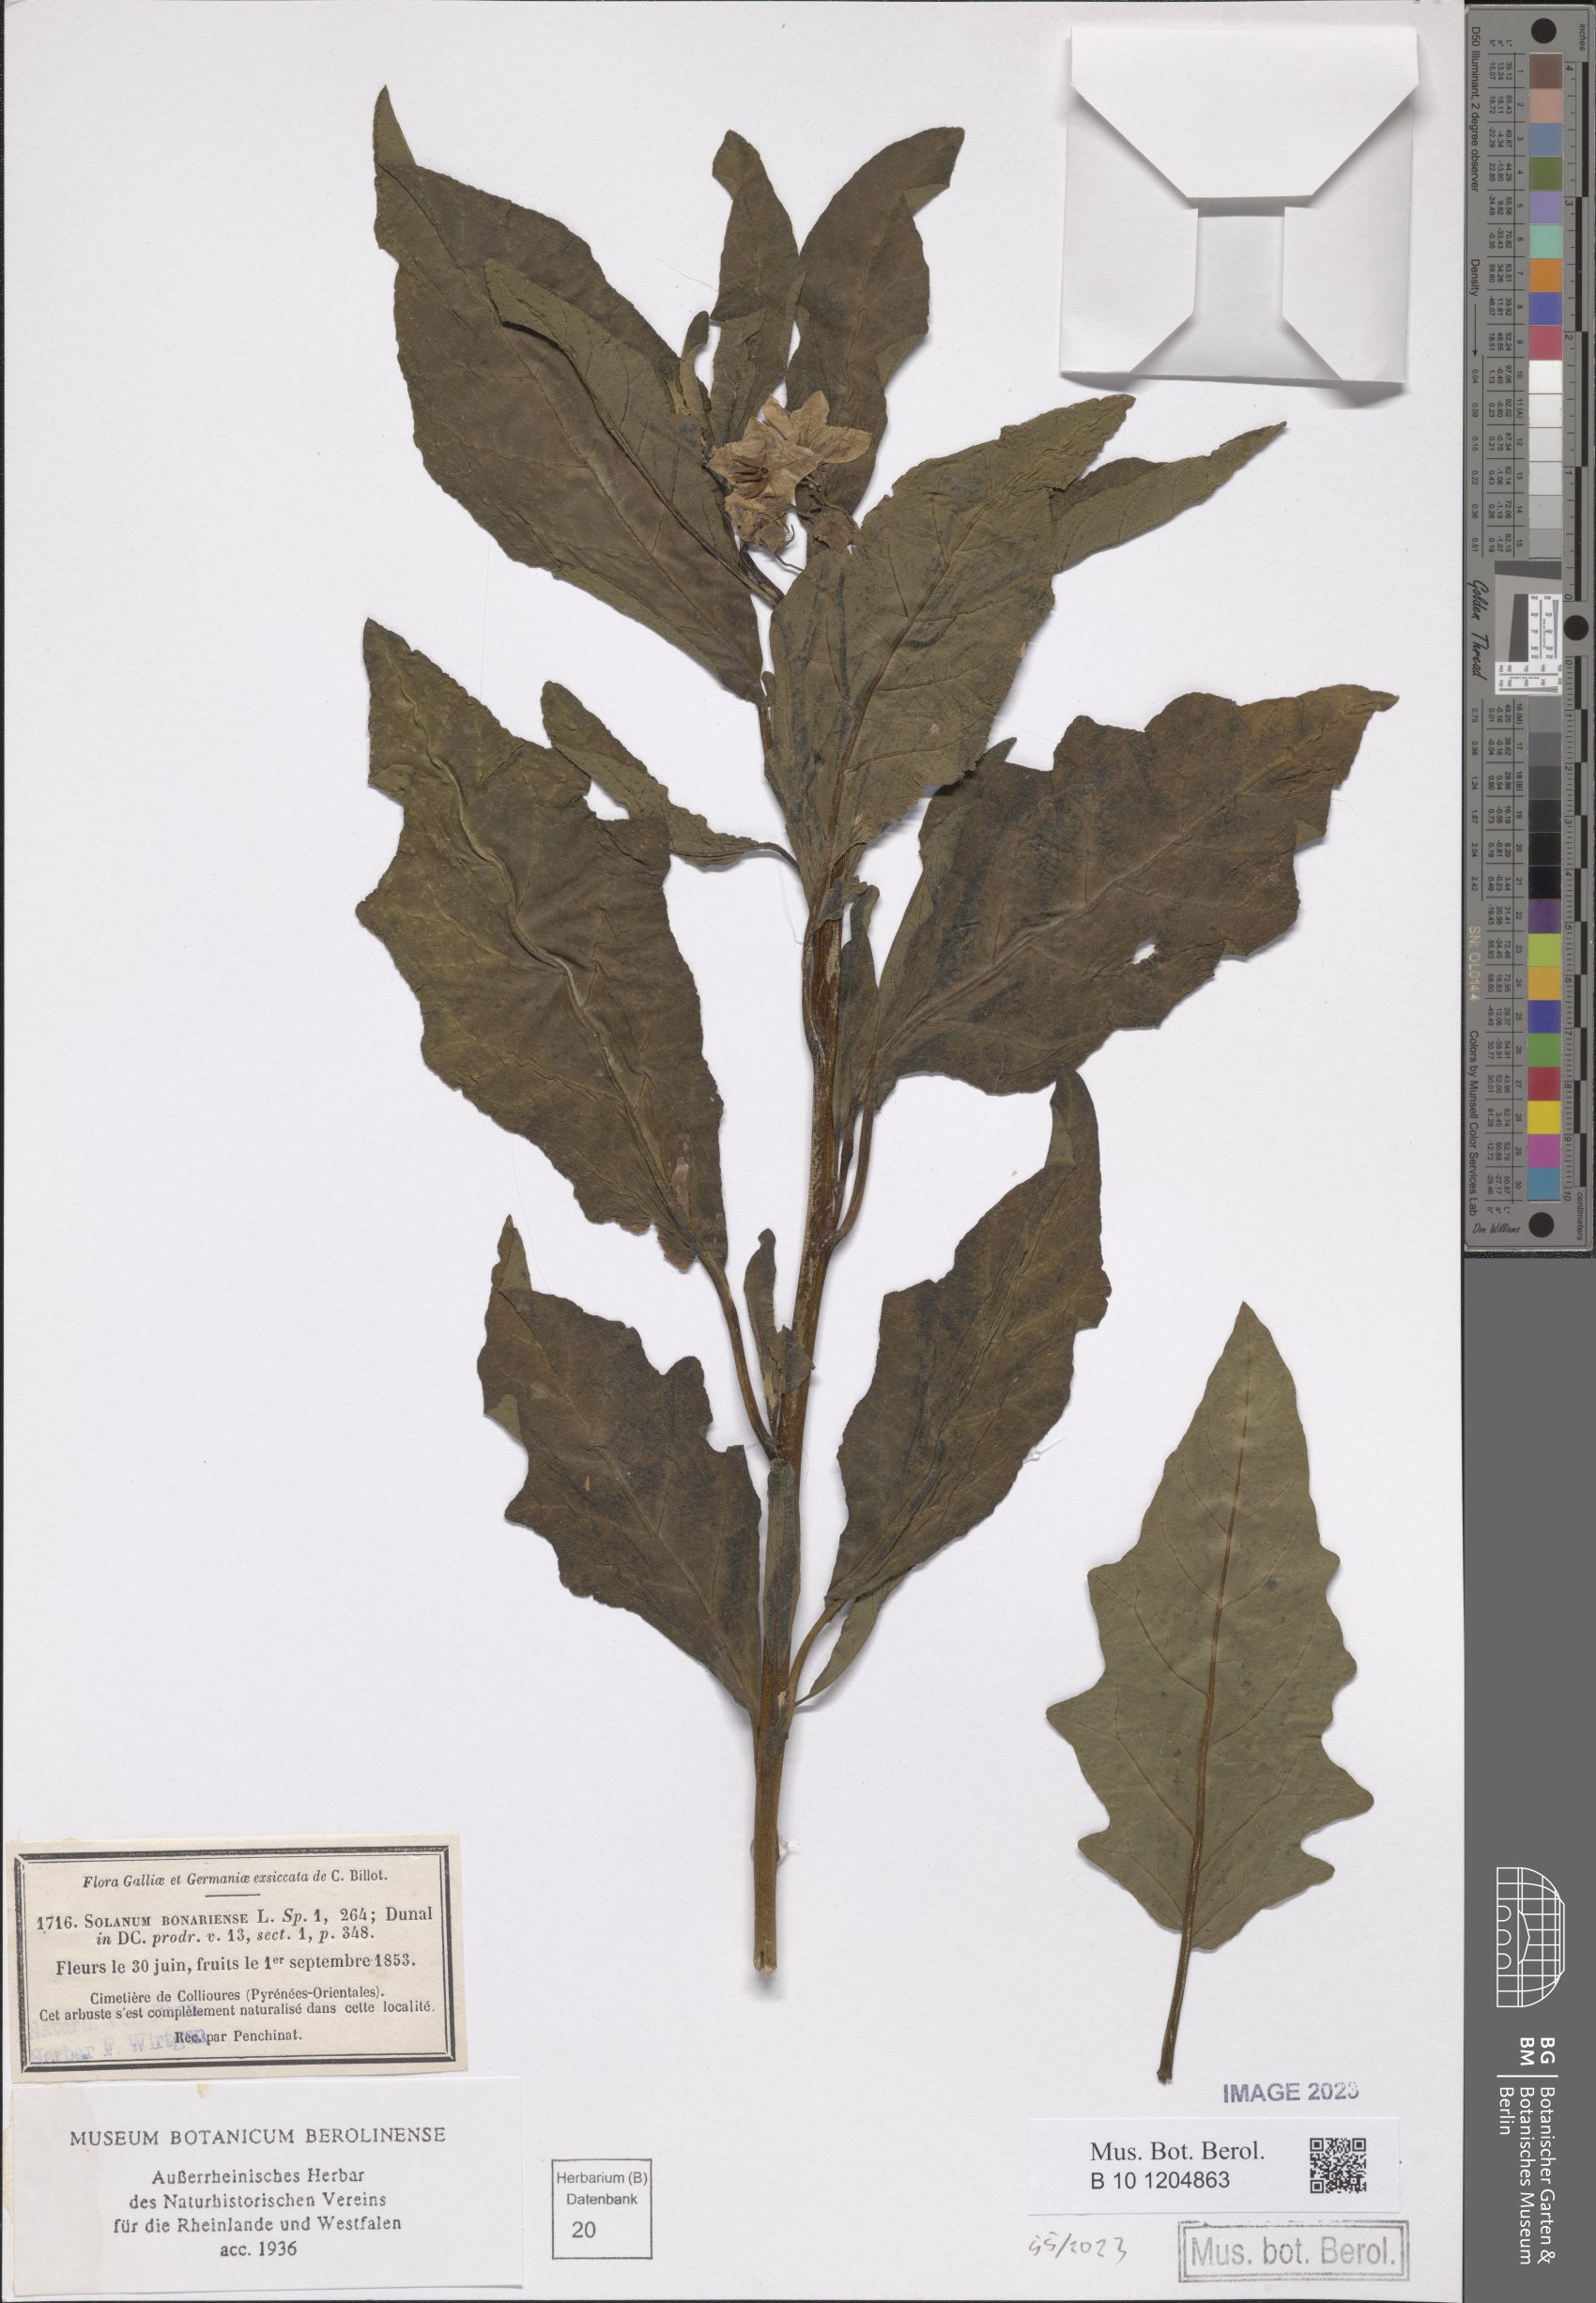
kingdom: Plantae
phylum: Tracheophyta
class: Magnoliopsida
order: Solanales
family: Solanaceae
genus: Solanum
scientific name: Solanum bonariense
